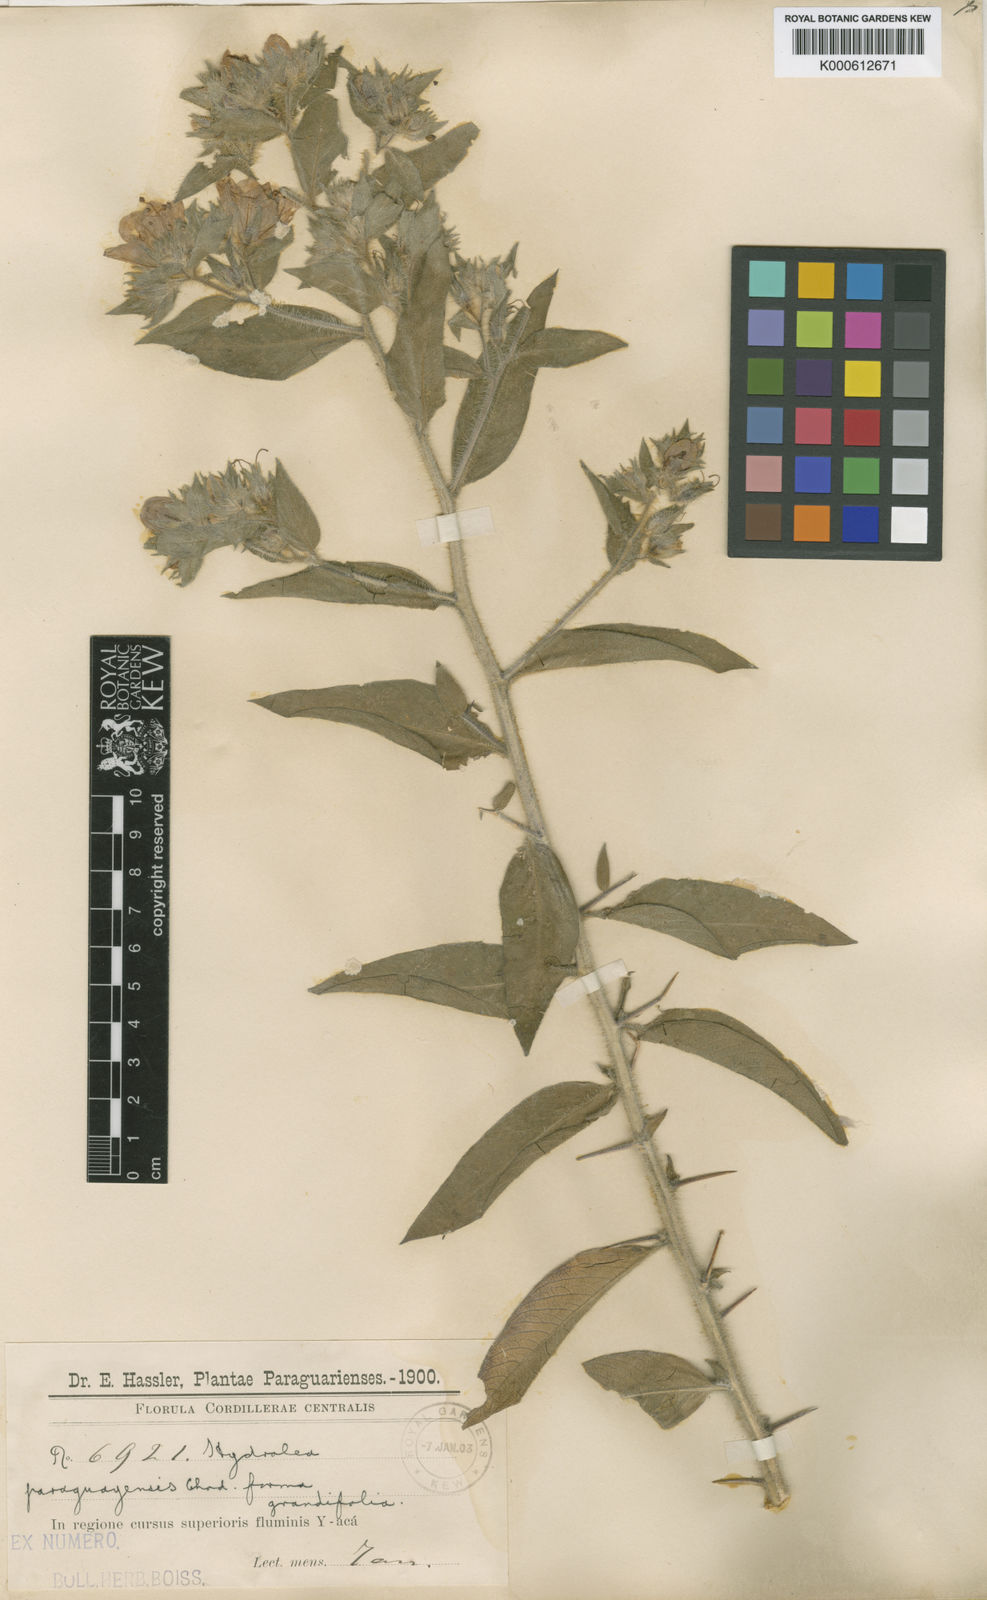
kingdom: Plantae
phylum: Tracheophyta
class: Magnoliopsida
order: Solanales
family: Hydroleaceae
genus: Hydrolea
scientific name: Hydrolea spinosa
